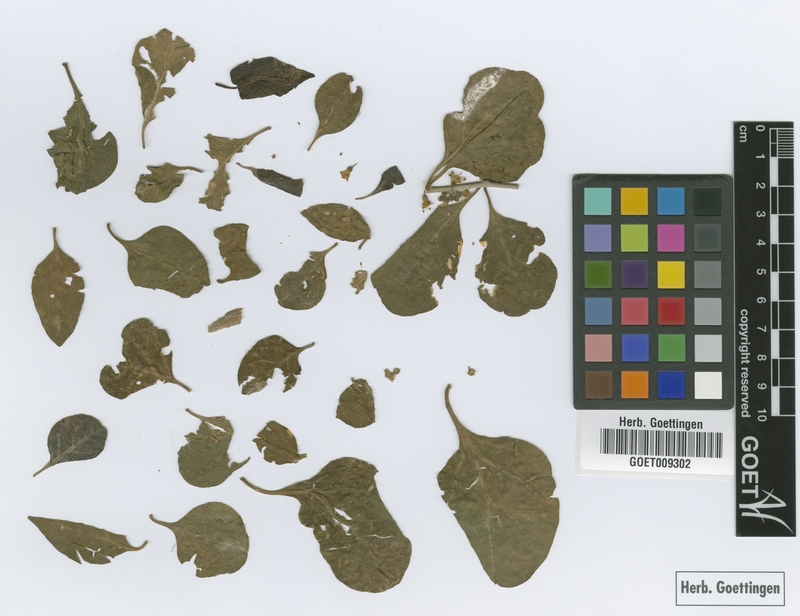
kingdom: Plantae
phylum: Tracheophyta
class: Magnoliopsida
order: Solanales
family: Solanaceae
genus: Lycium
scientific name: Lycium cuneatum
